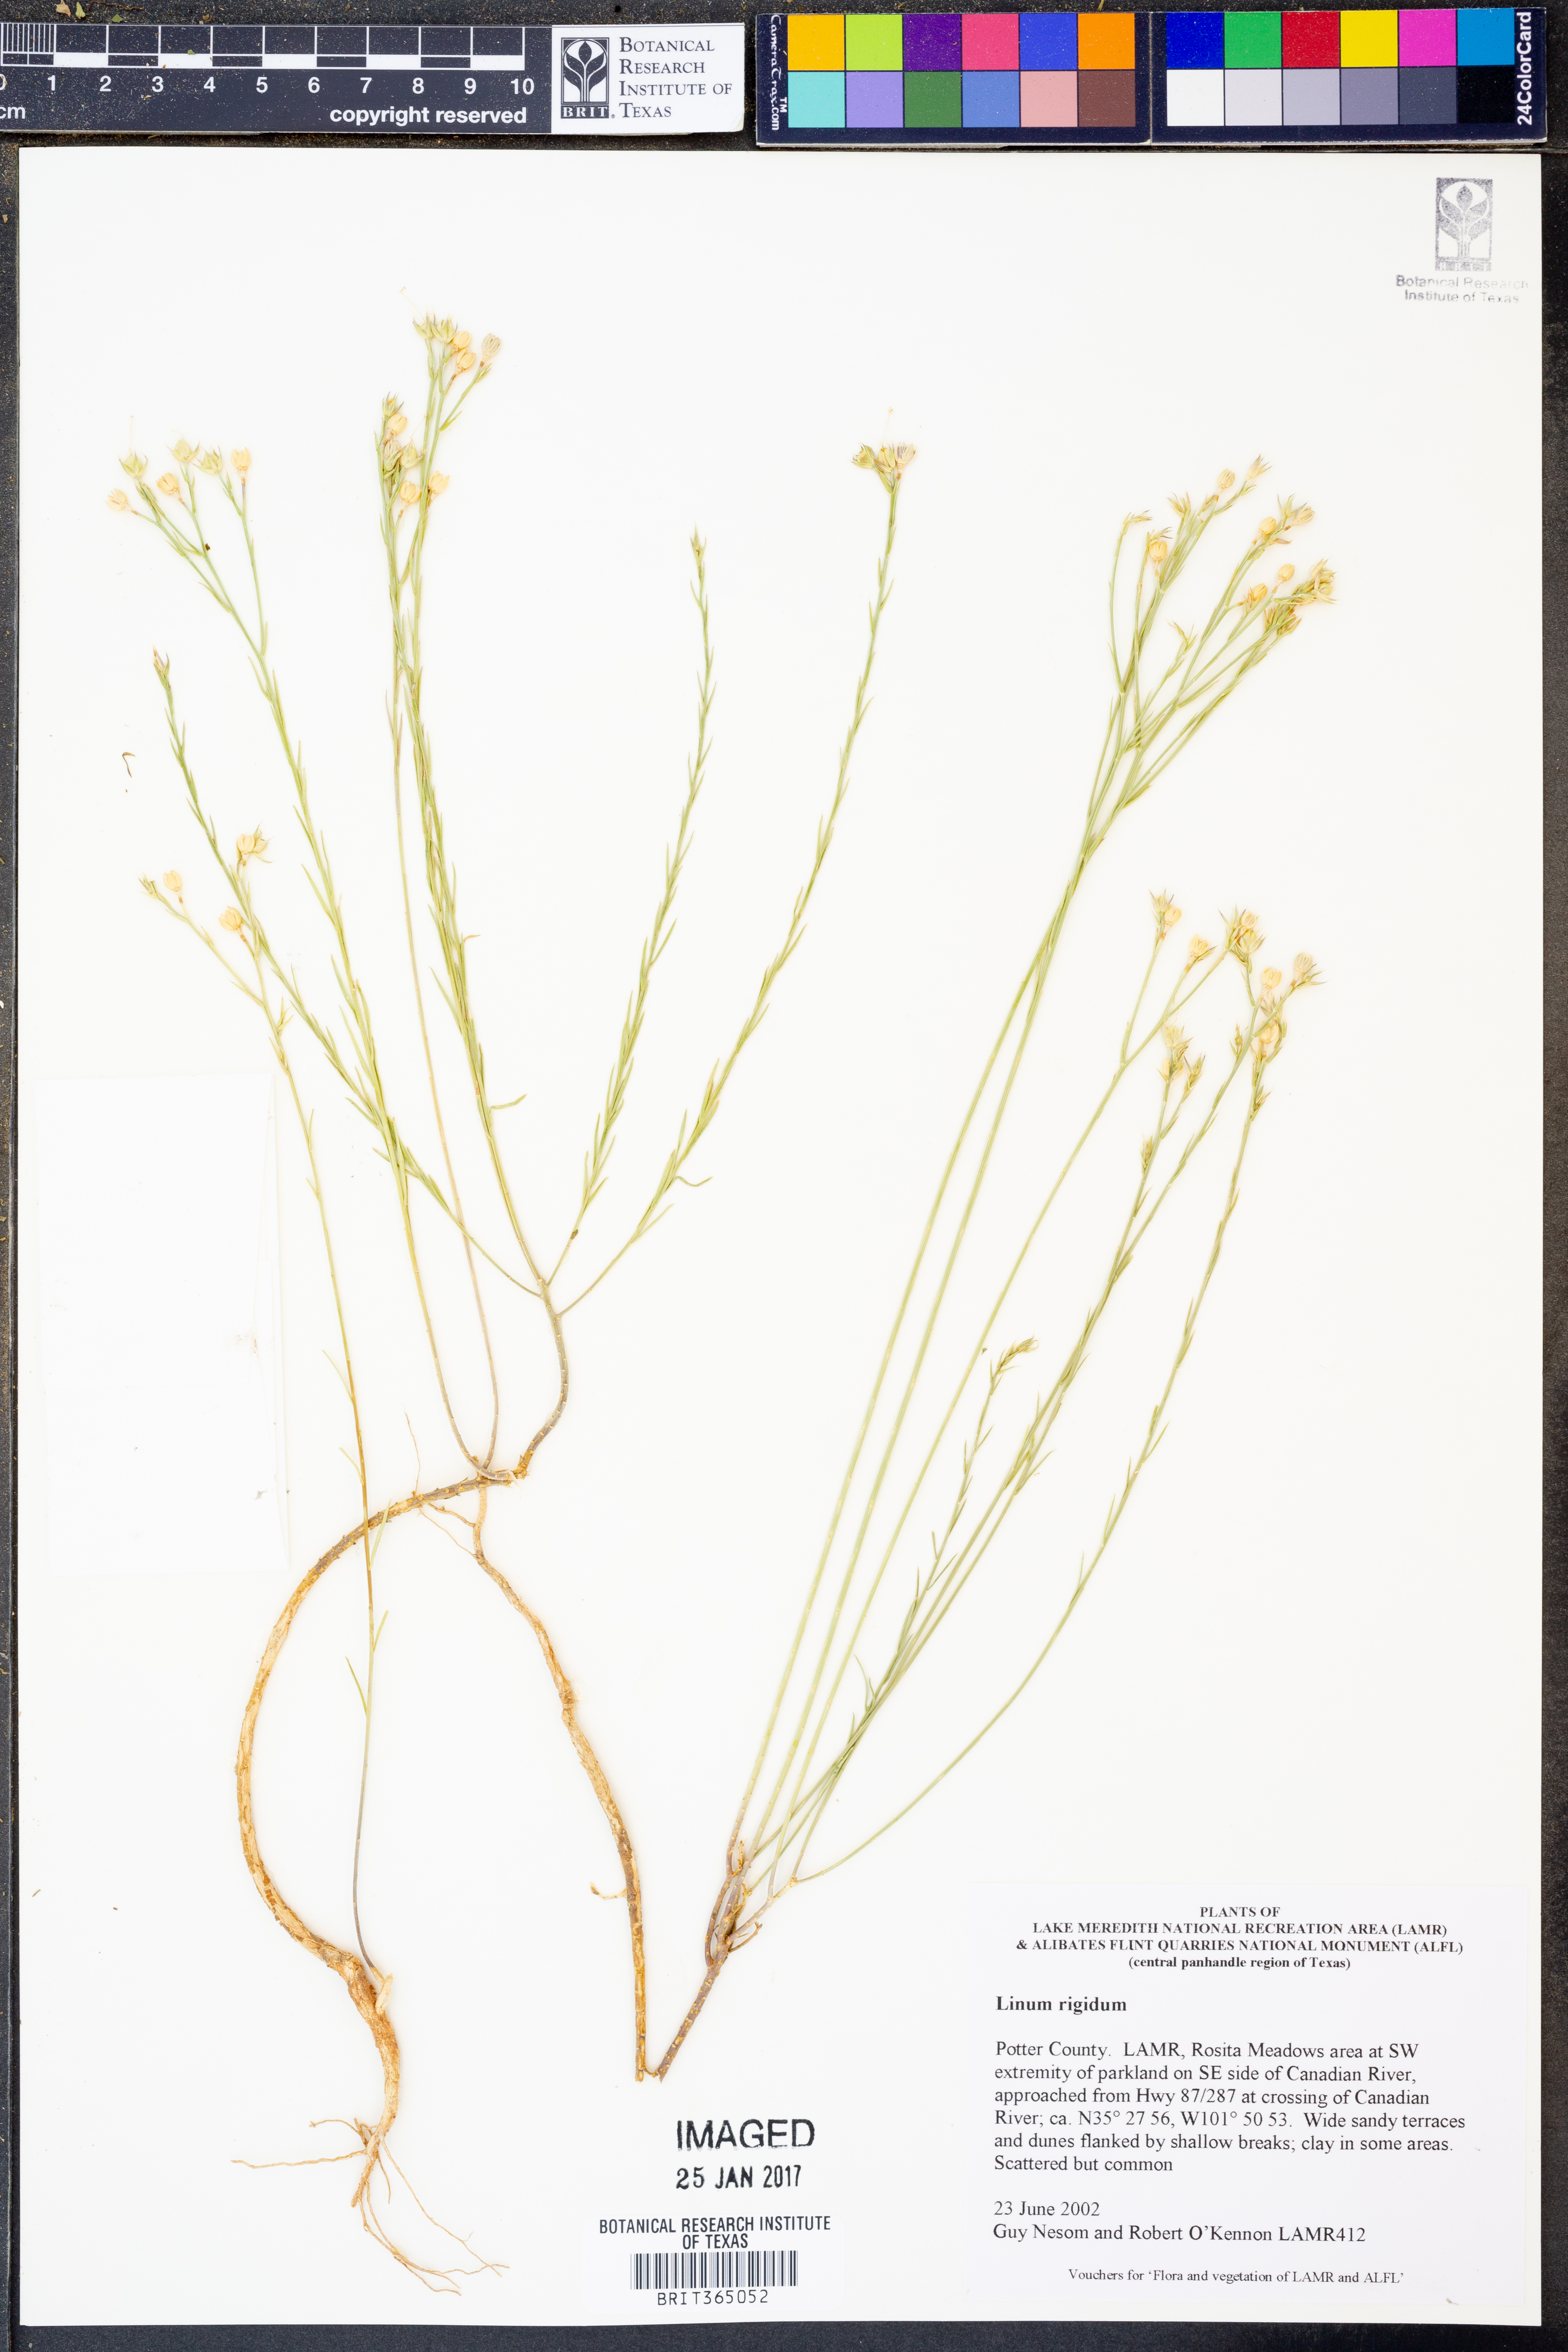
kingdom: Plantae
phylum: Tracheophyta
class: Magnoliopsida
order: Malpighiales
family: Linaceae
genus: Linum
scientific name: Linum rigidum
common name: Stiff-stem flax
